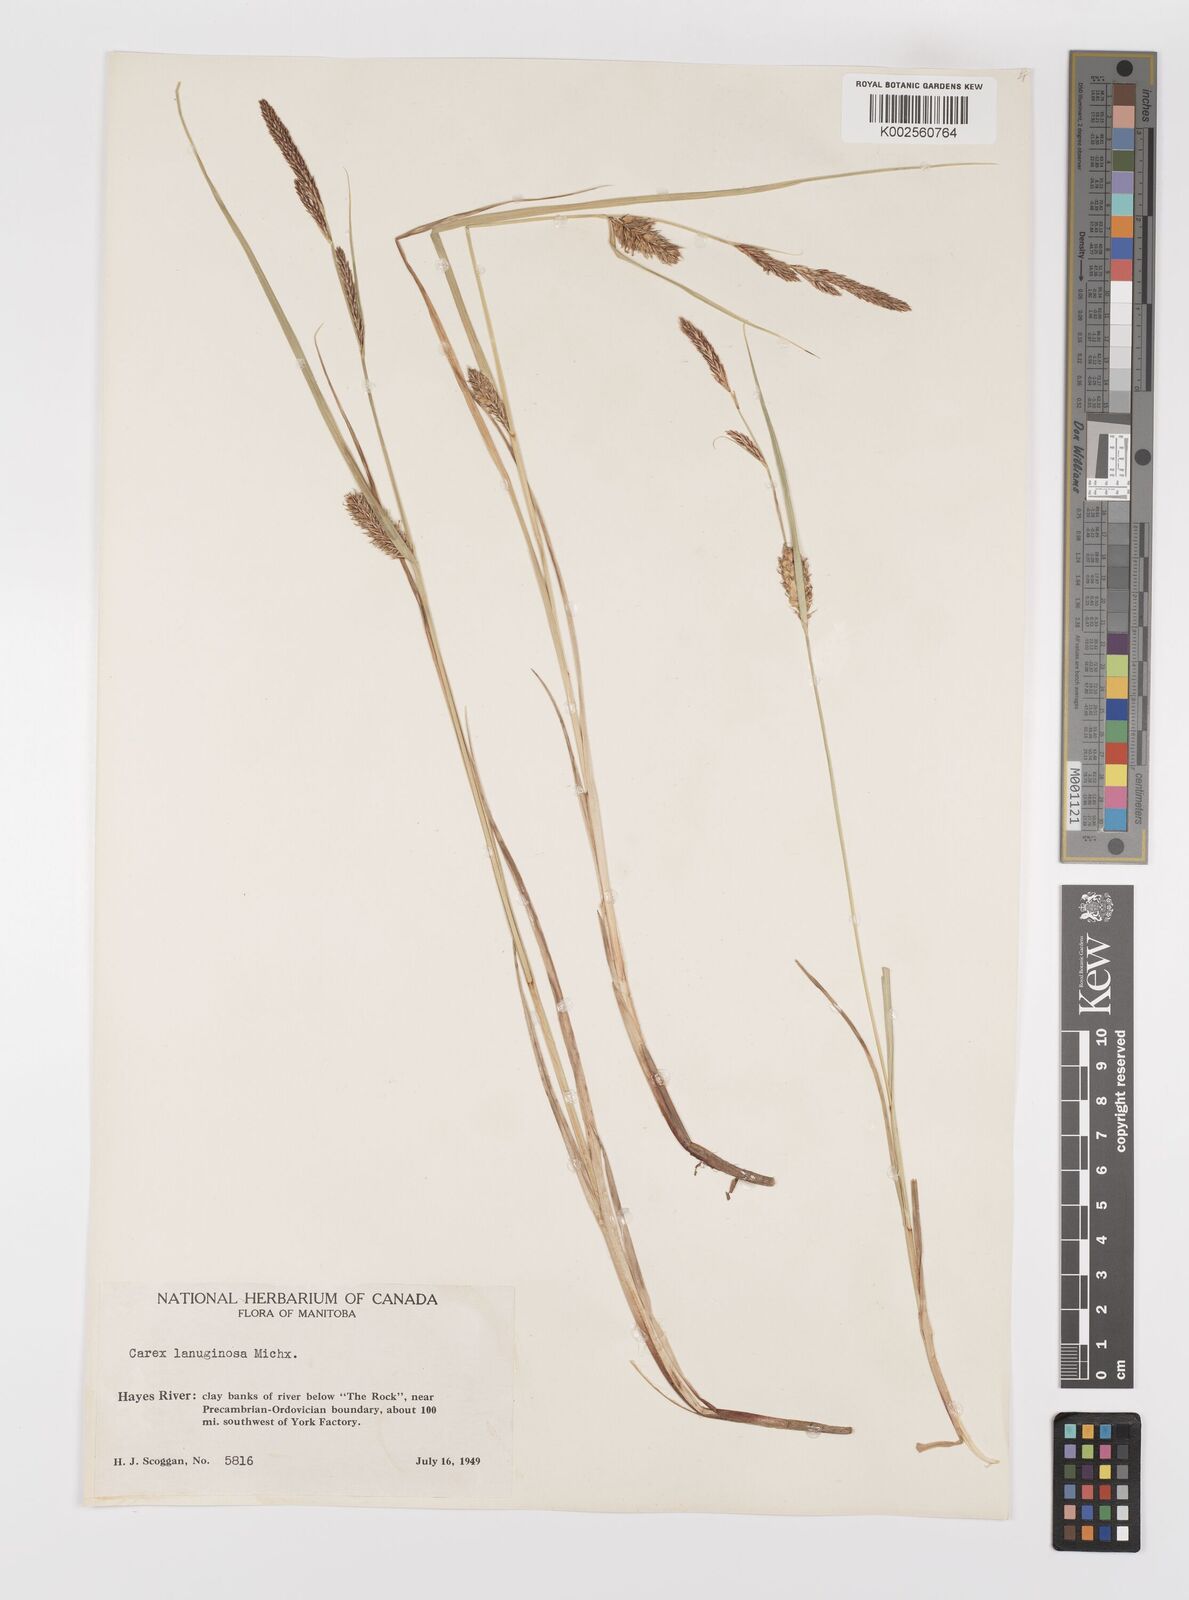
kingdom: Plantae
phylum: Tracheophyta
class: Liliopsida
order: Poales
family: Cyperaceae
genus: Carex
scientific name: Carex lasiocarpa
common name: Slender sedge
